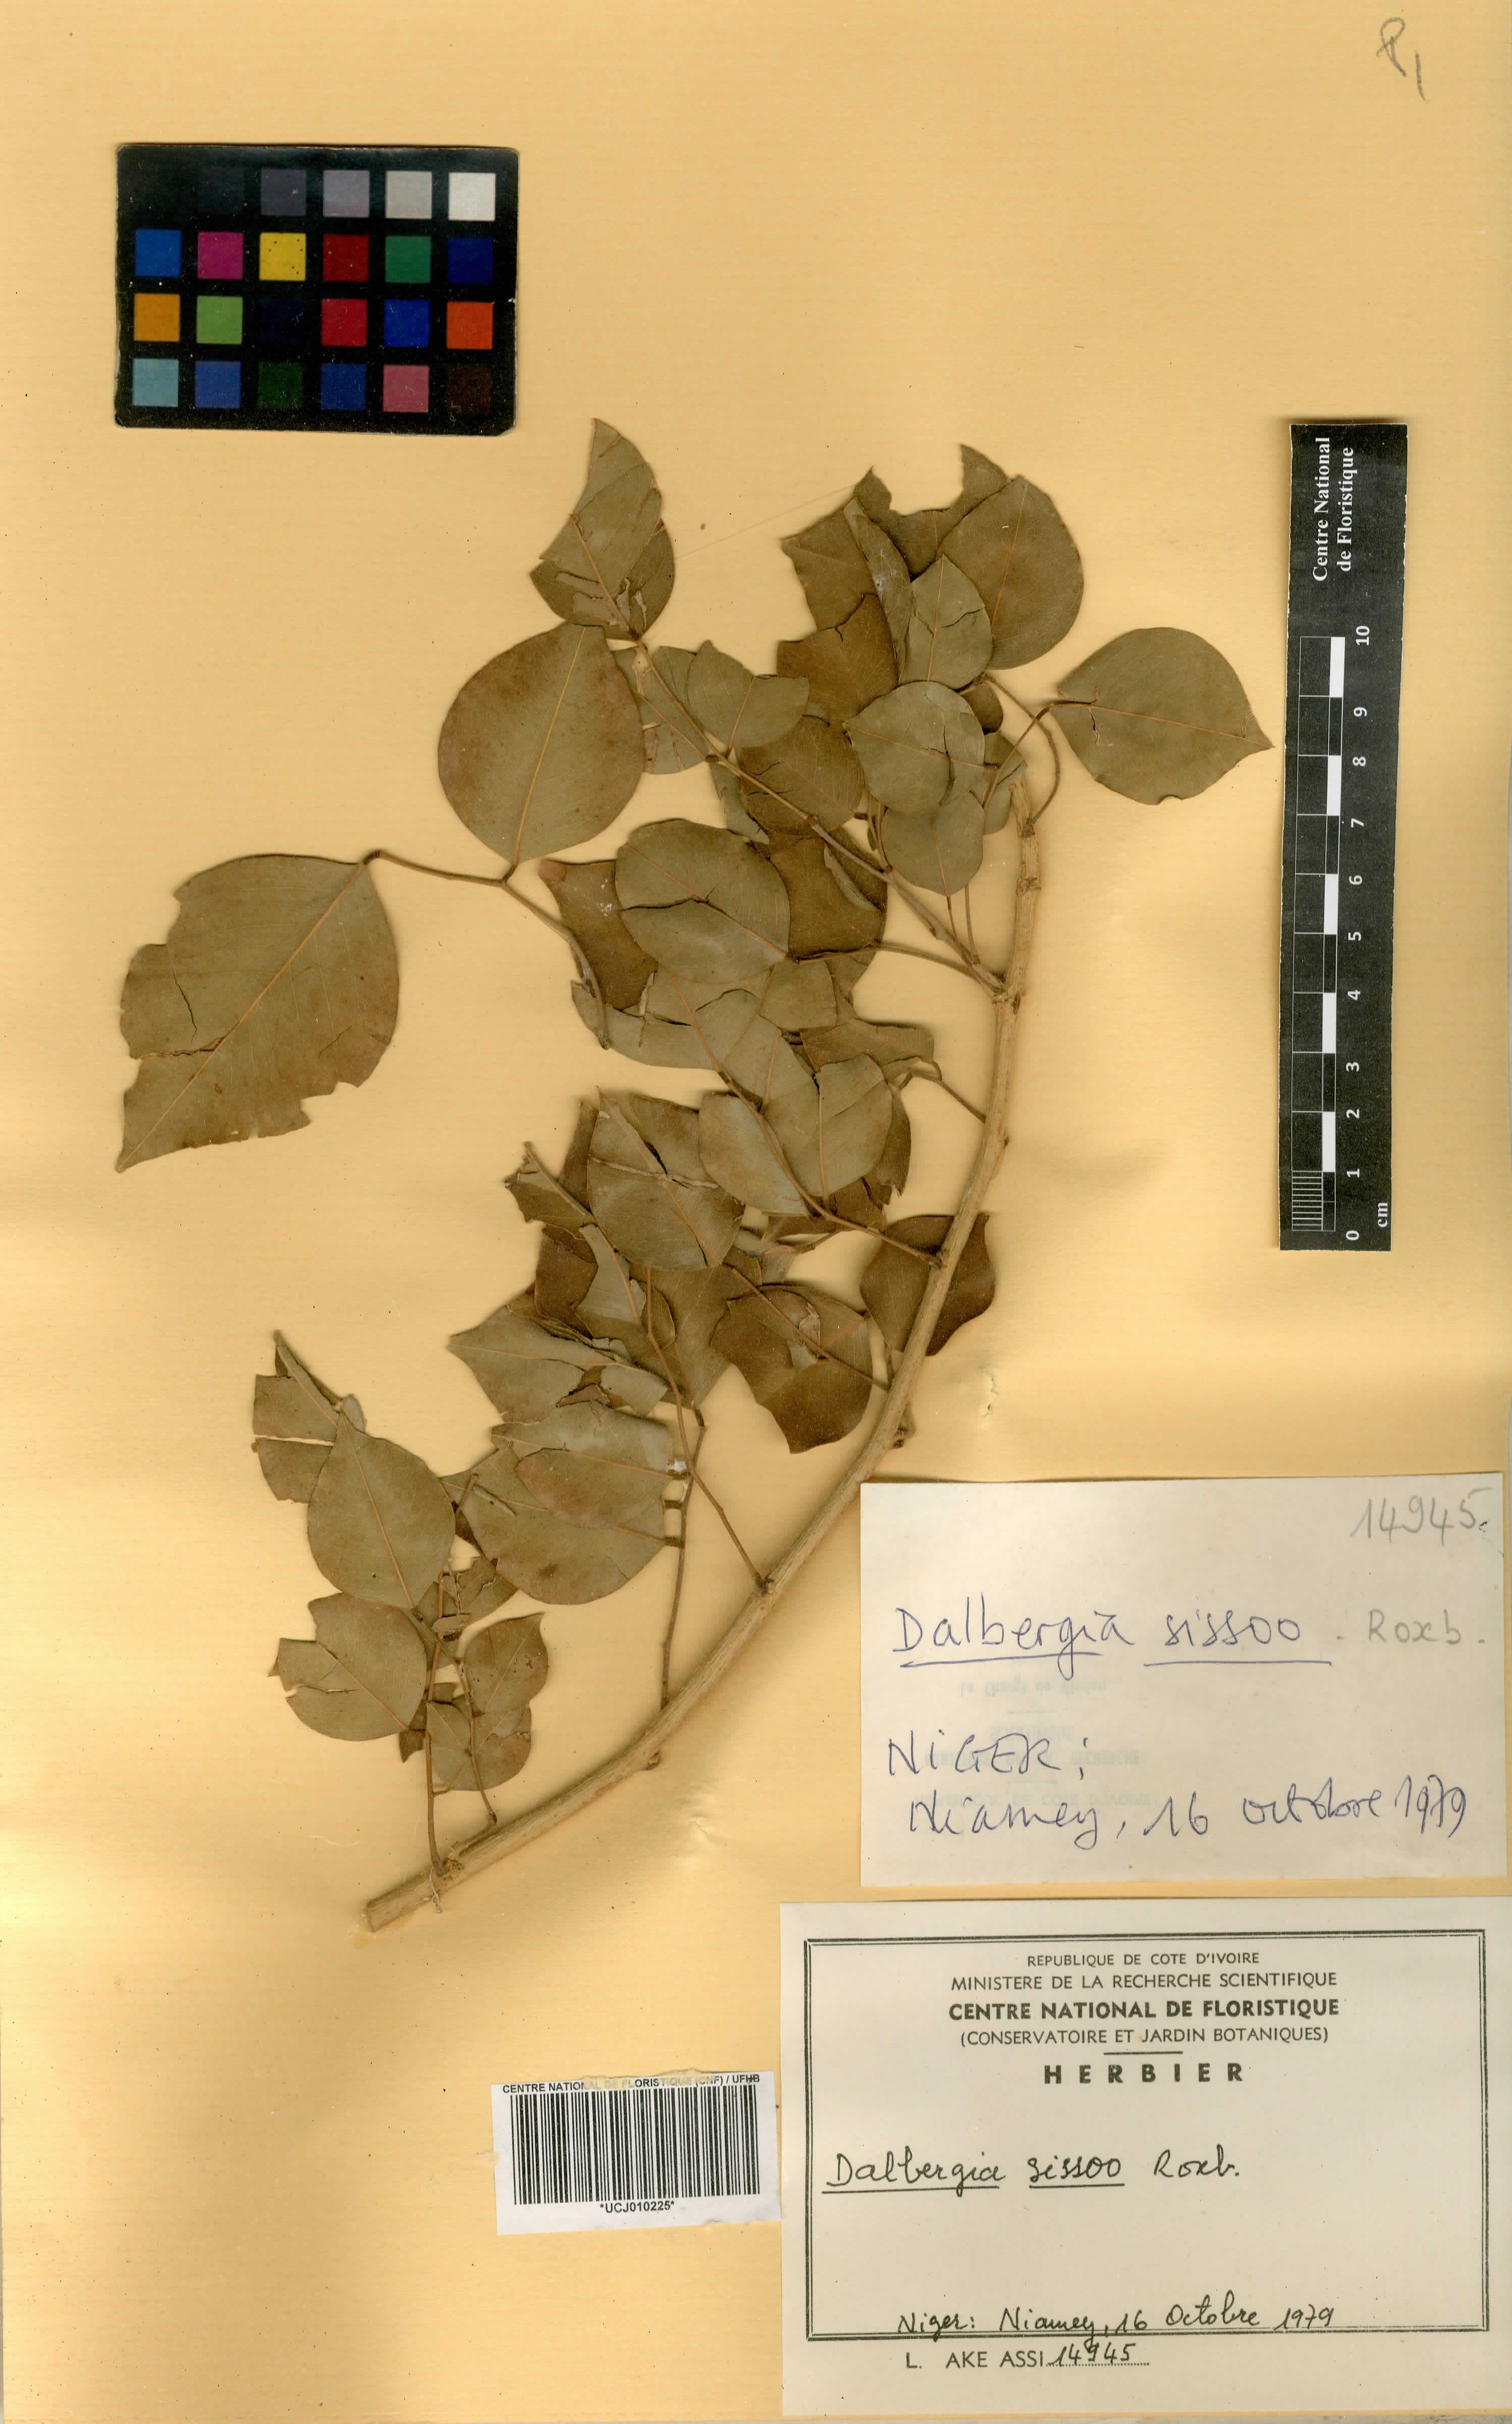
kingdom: Plantae
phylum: Tracheophyta
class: Magnoliopsida
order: Fabales
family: Fabaceae
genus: Dalbergia
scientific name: Dalbergia sissoo
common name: Indian rosewood
